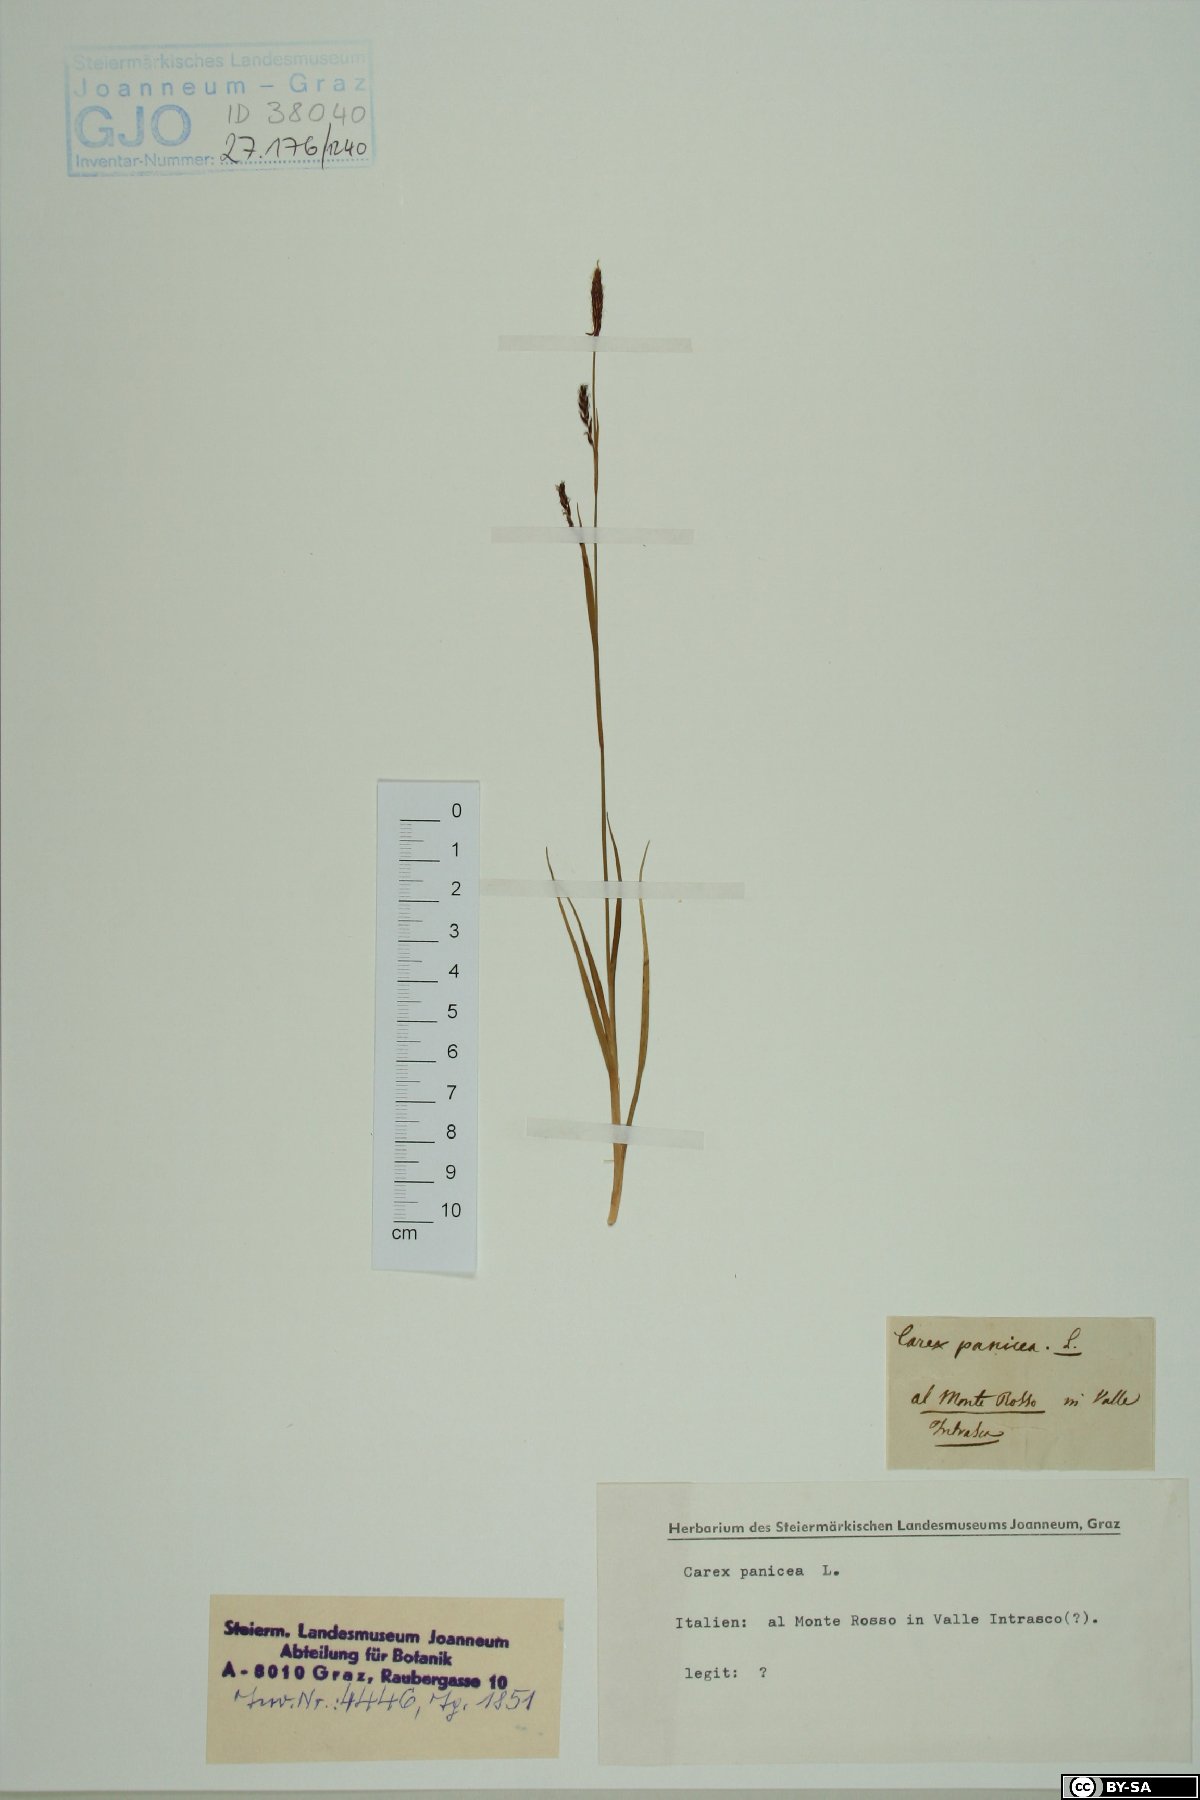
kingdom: Plantae
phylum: Tracheophyta
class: Liliopsida
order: Poales
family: Cyperaceae
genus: Carex
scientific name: Carex panicea
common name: Carnation sedge
